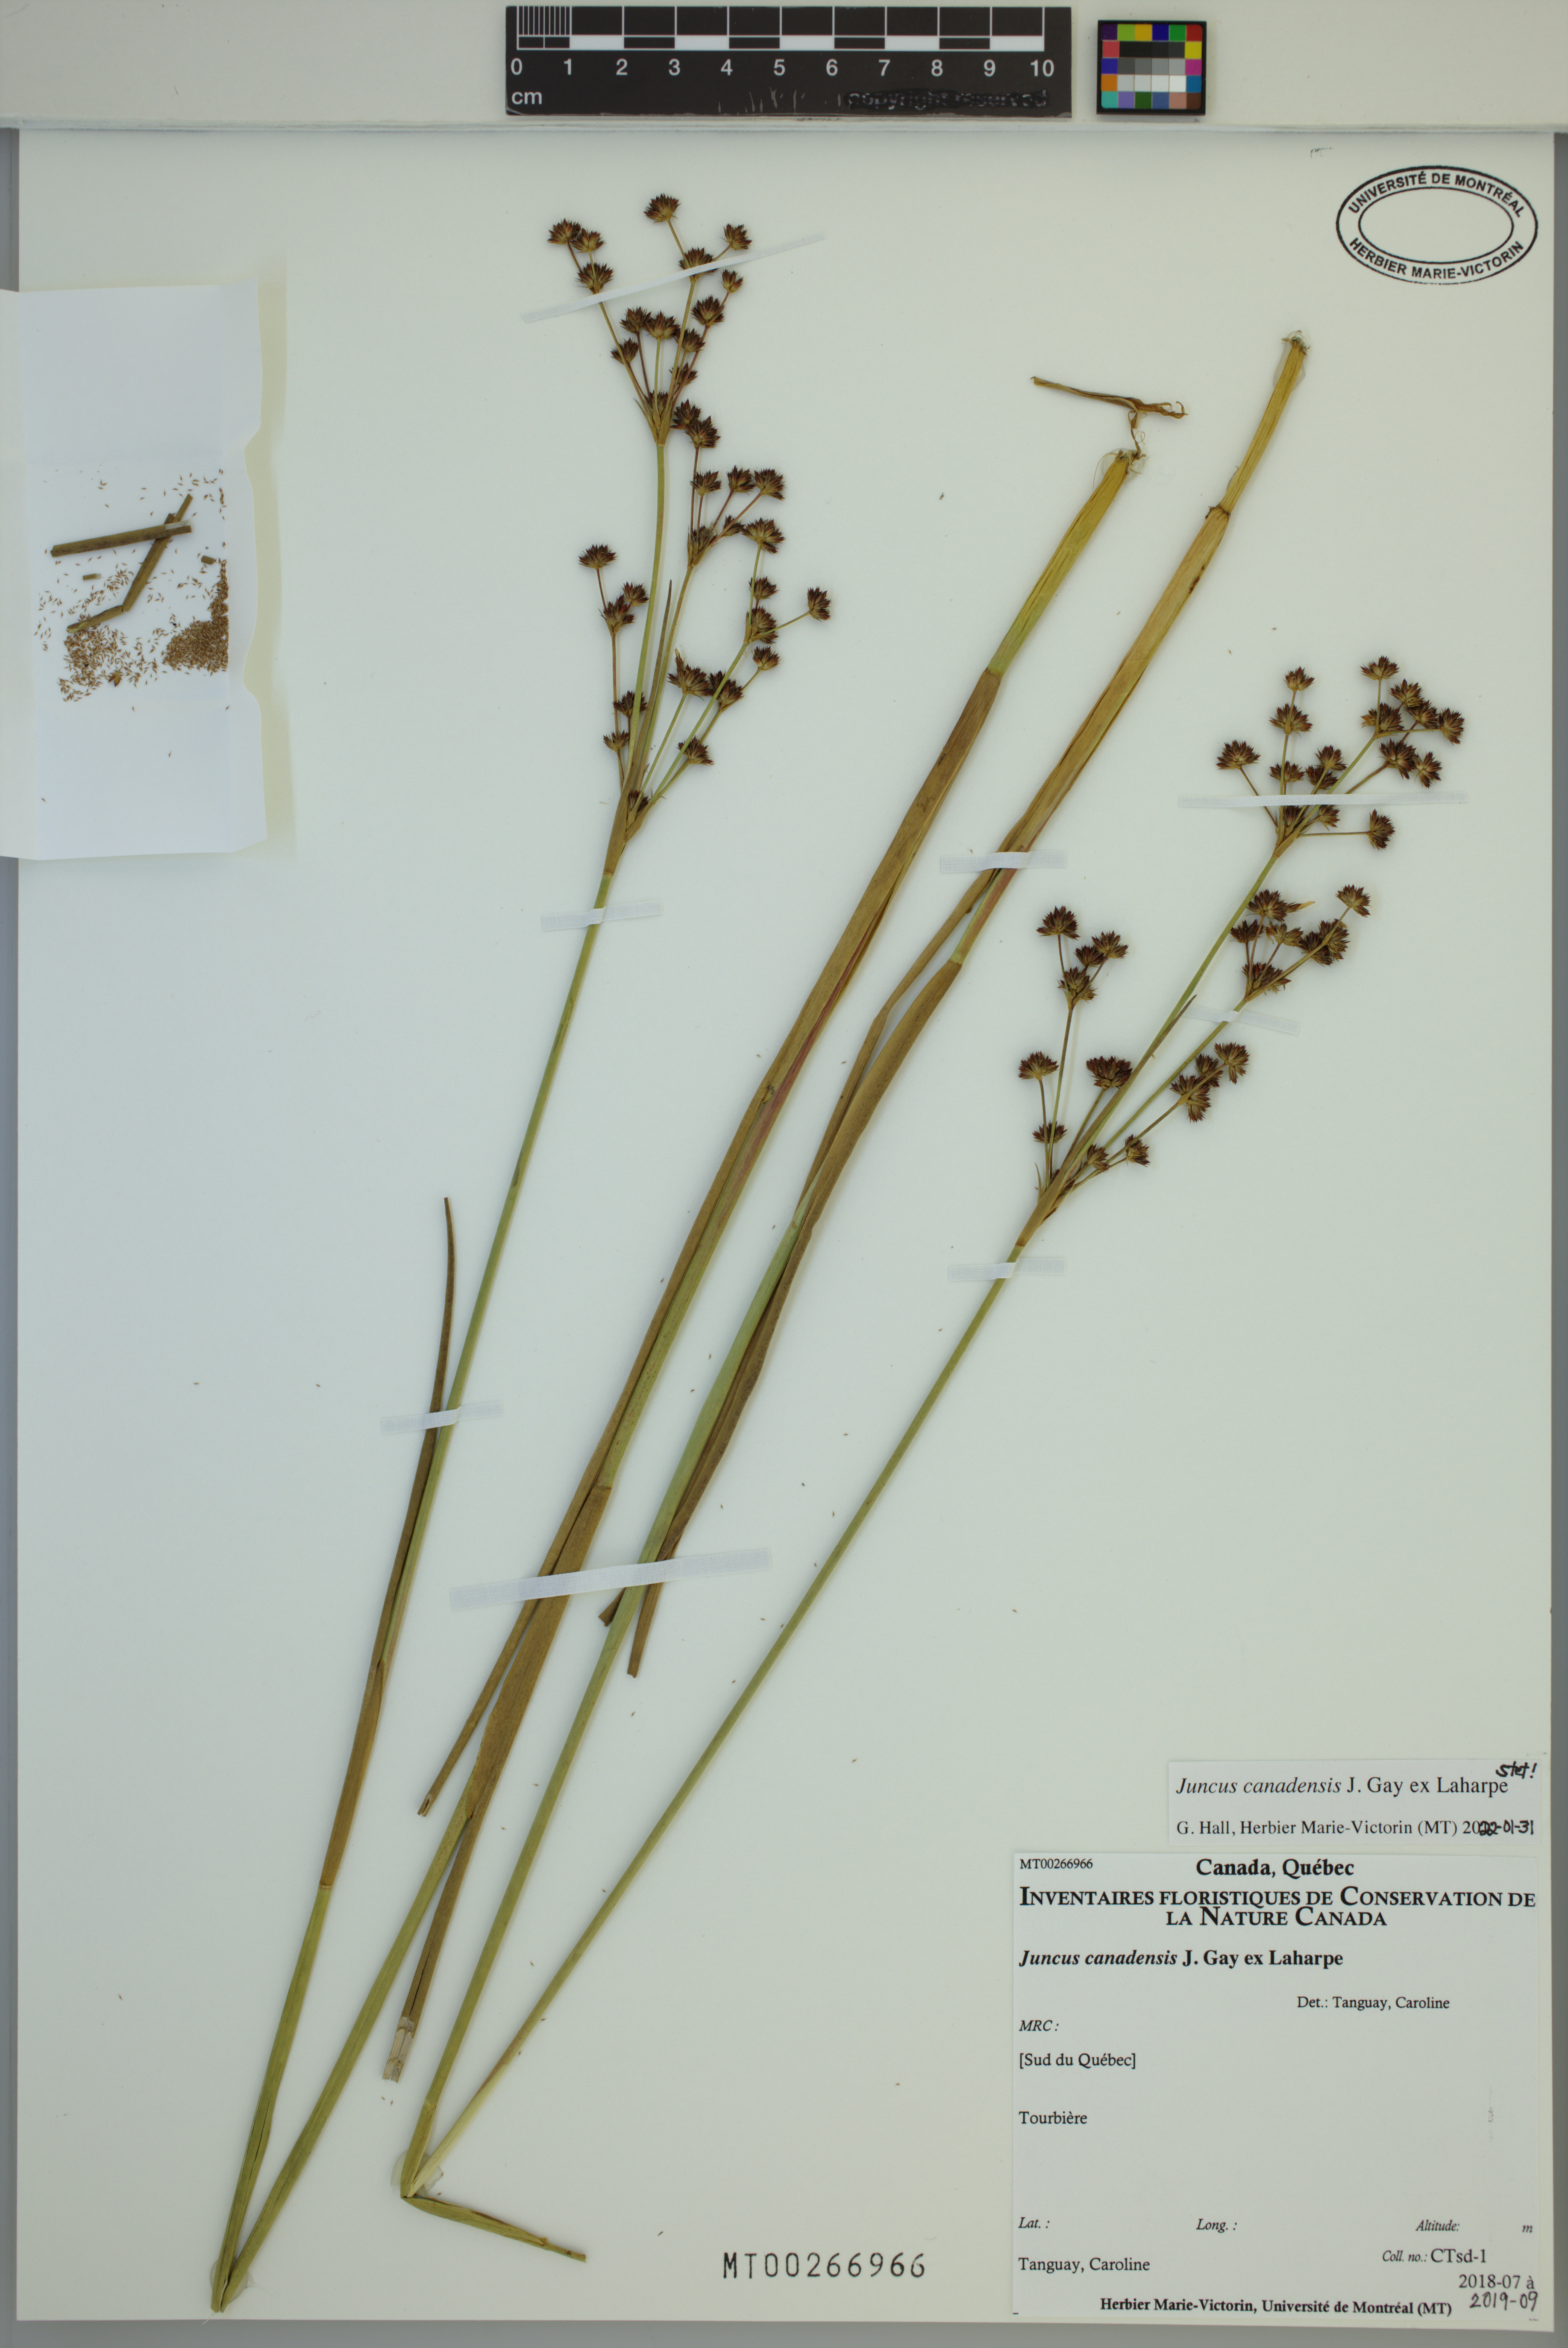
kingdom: Plantae
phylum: Tracheophyta
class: Liliopsida
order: Poales
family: Juncaceae
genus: Juncus
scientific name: Juncus canadensis
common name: Canada rush
